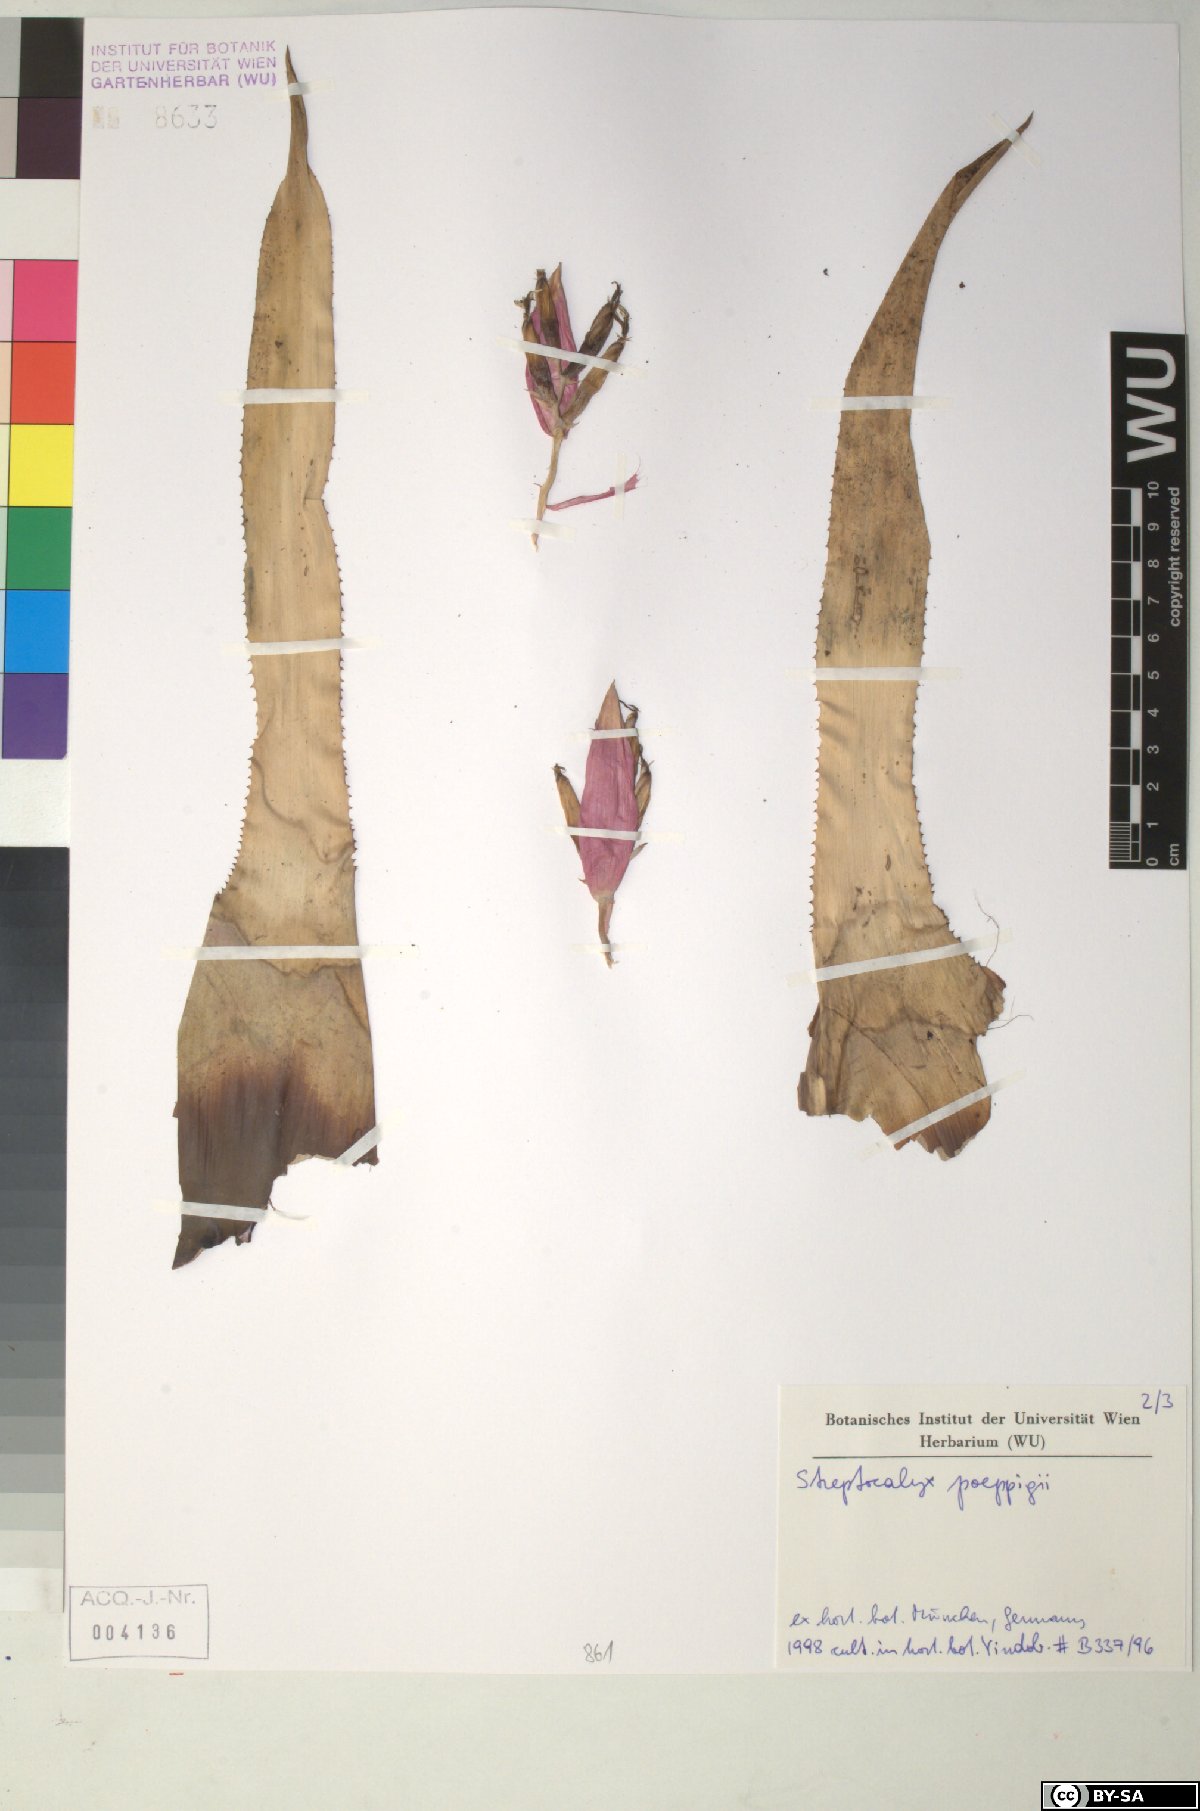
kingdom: Plantae
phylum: Tracheophyta
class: Liliopsida
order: Poales
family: Bromeliaceae
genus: Aechmea
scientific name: Aechmea vallerandii
